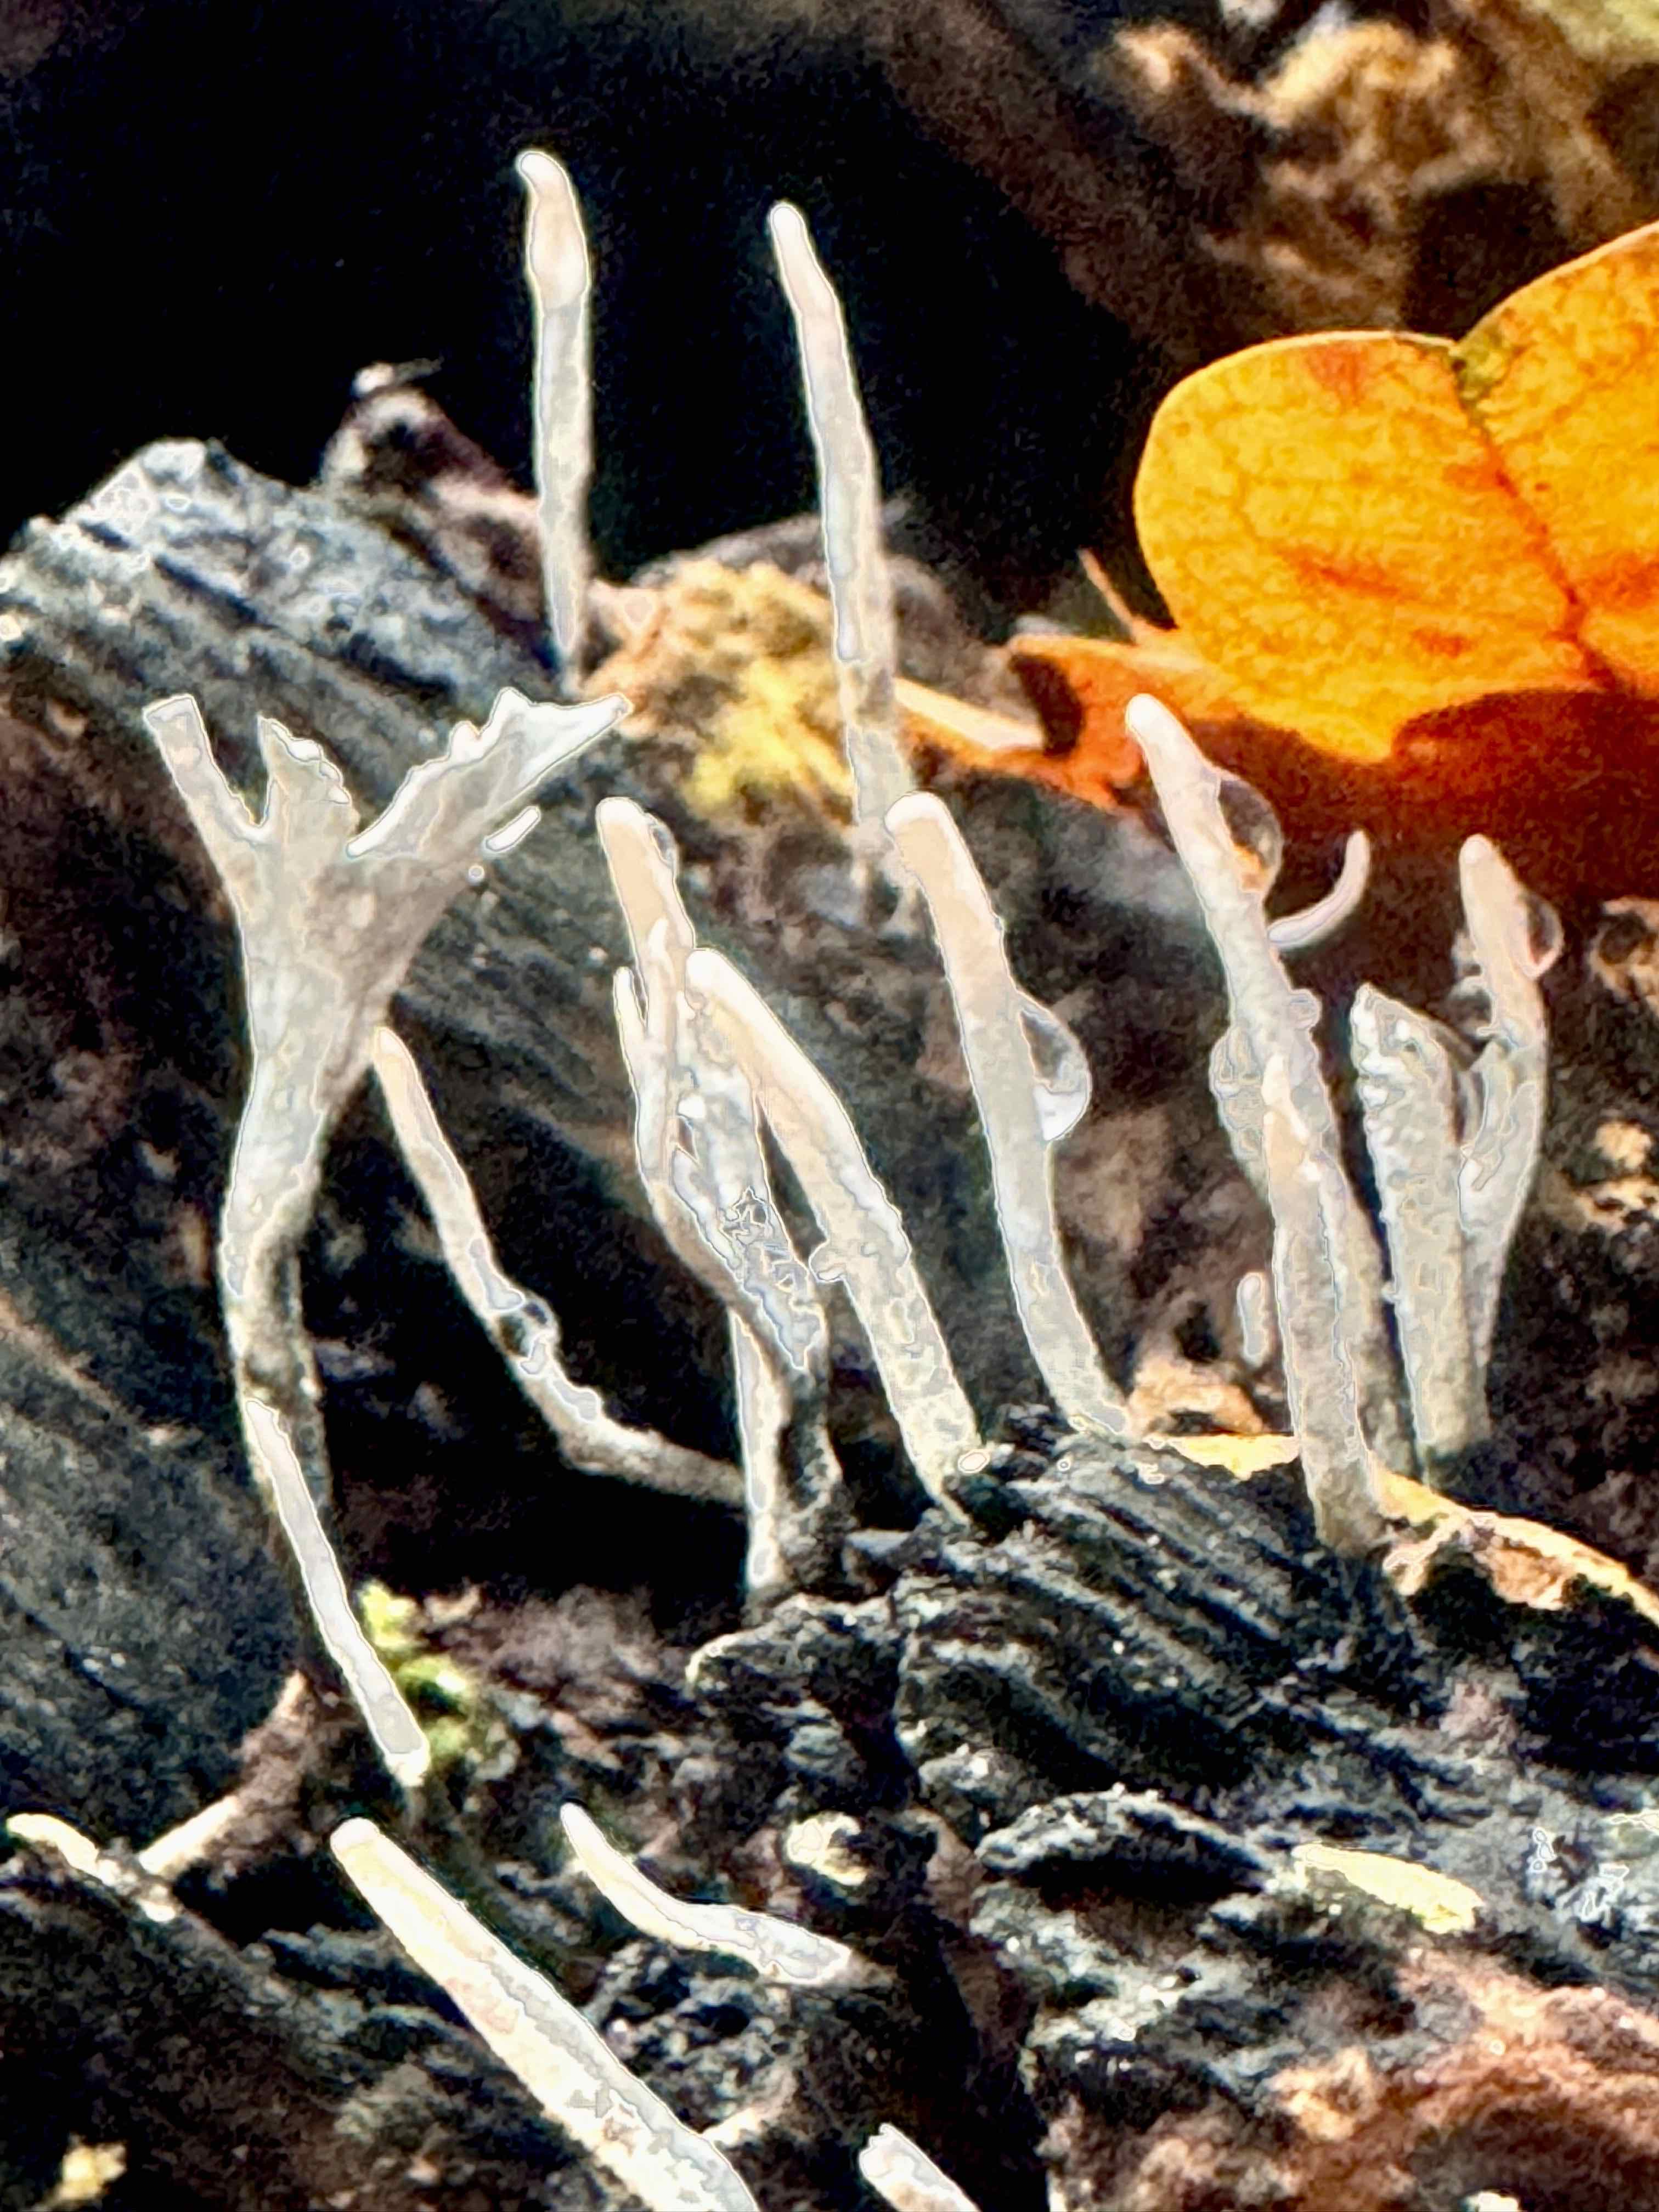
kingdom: Fungi
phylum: Ascomycota
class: Sordariomycetes
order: Xylariales
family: Xylariaceae
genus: Xylaria
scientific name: Xylaria hypoxylon
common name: grenet stødsvamp
